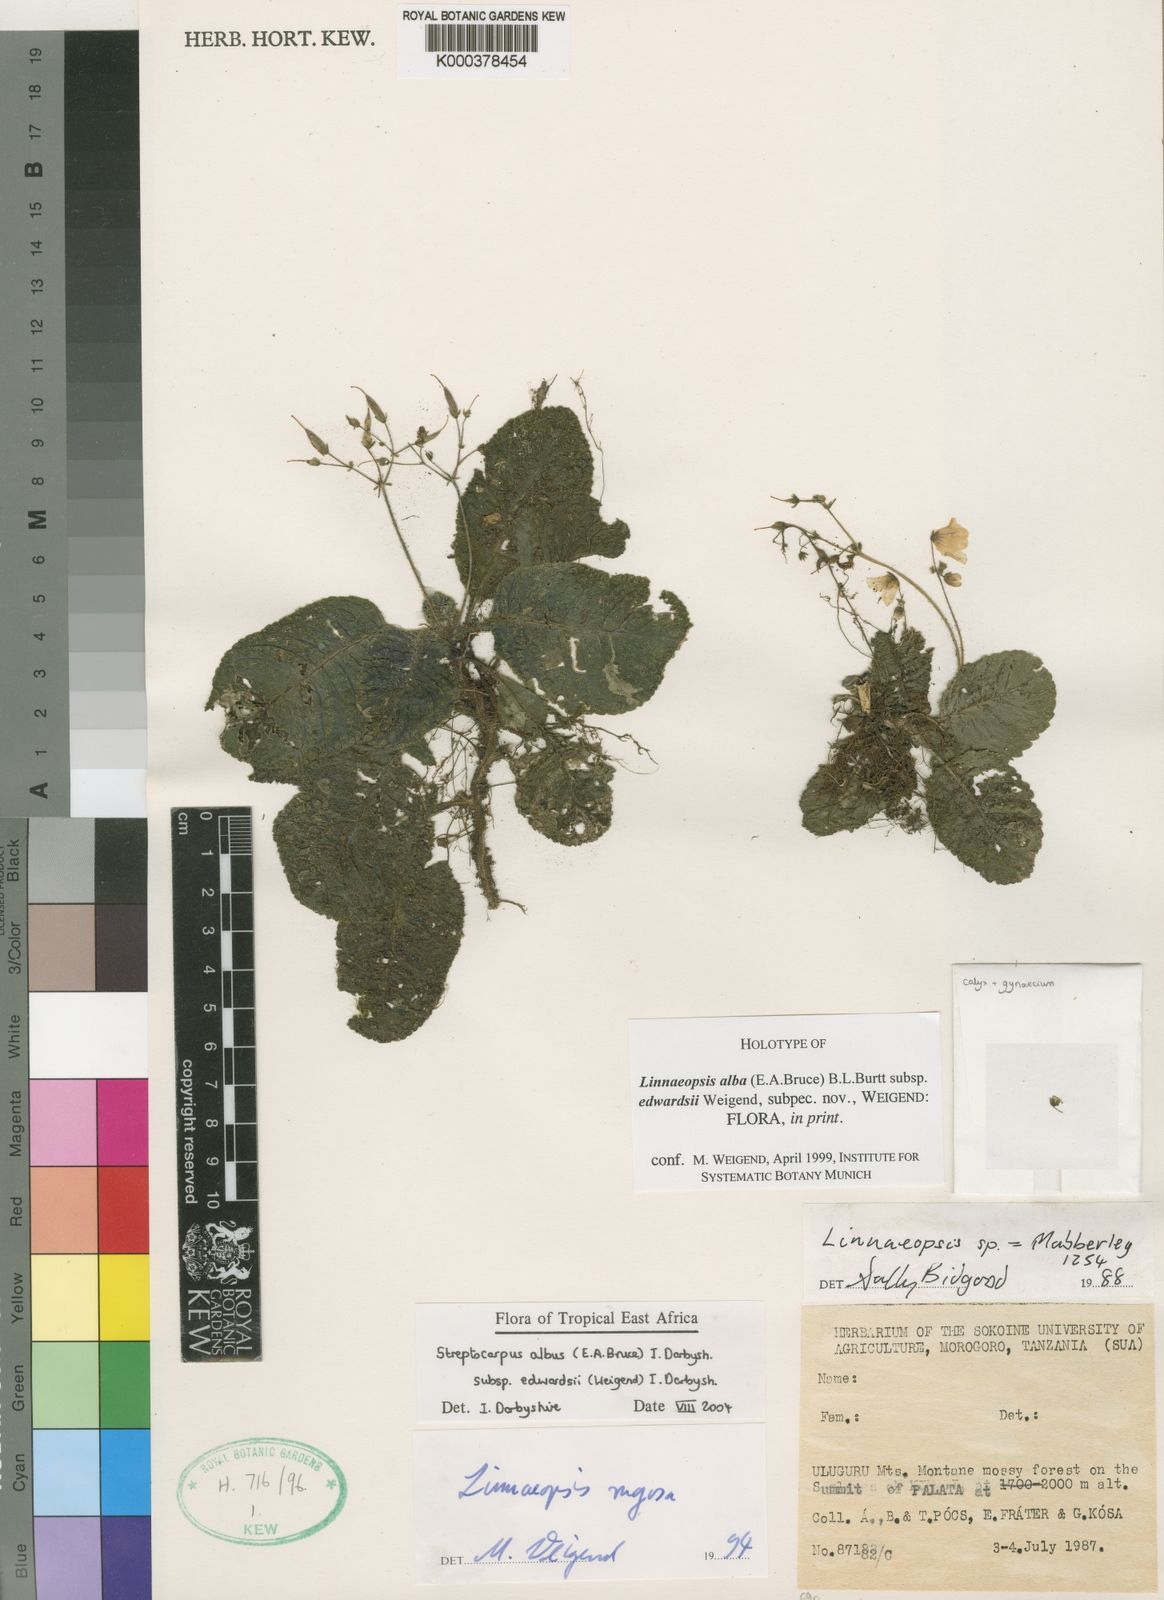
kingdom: Plantae
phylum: Tracheophyta
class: Magnoliopsida
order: Lamiales
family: Gesneriaceae
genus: Streptocarpus
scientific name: Streptocarpus albus
